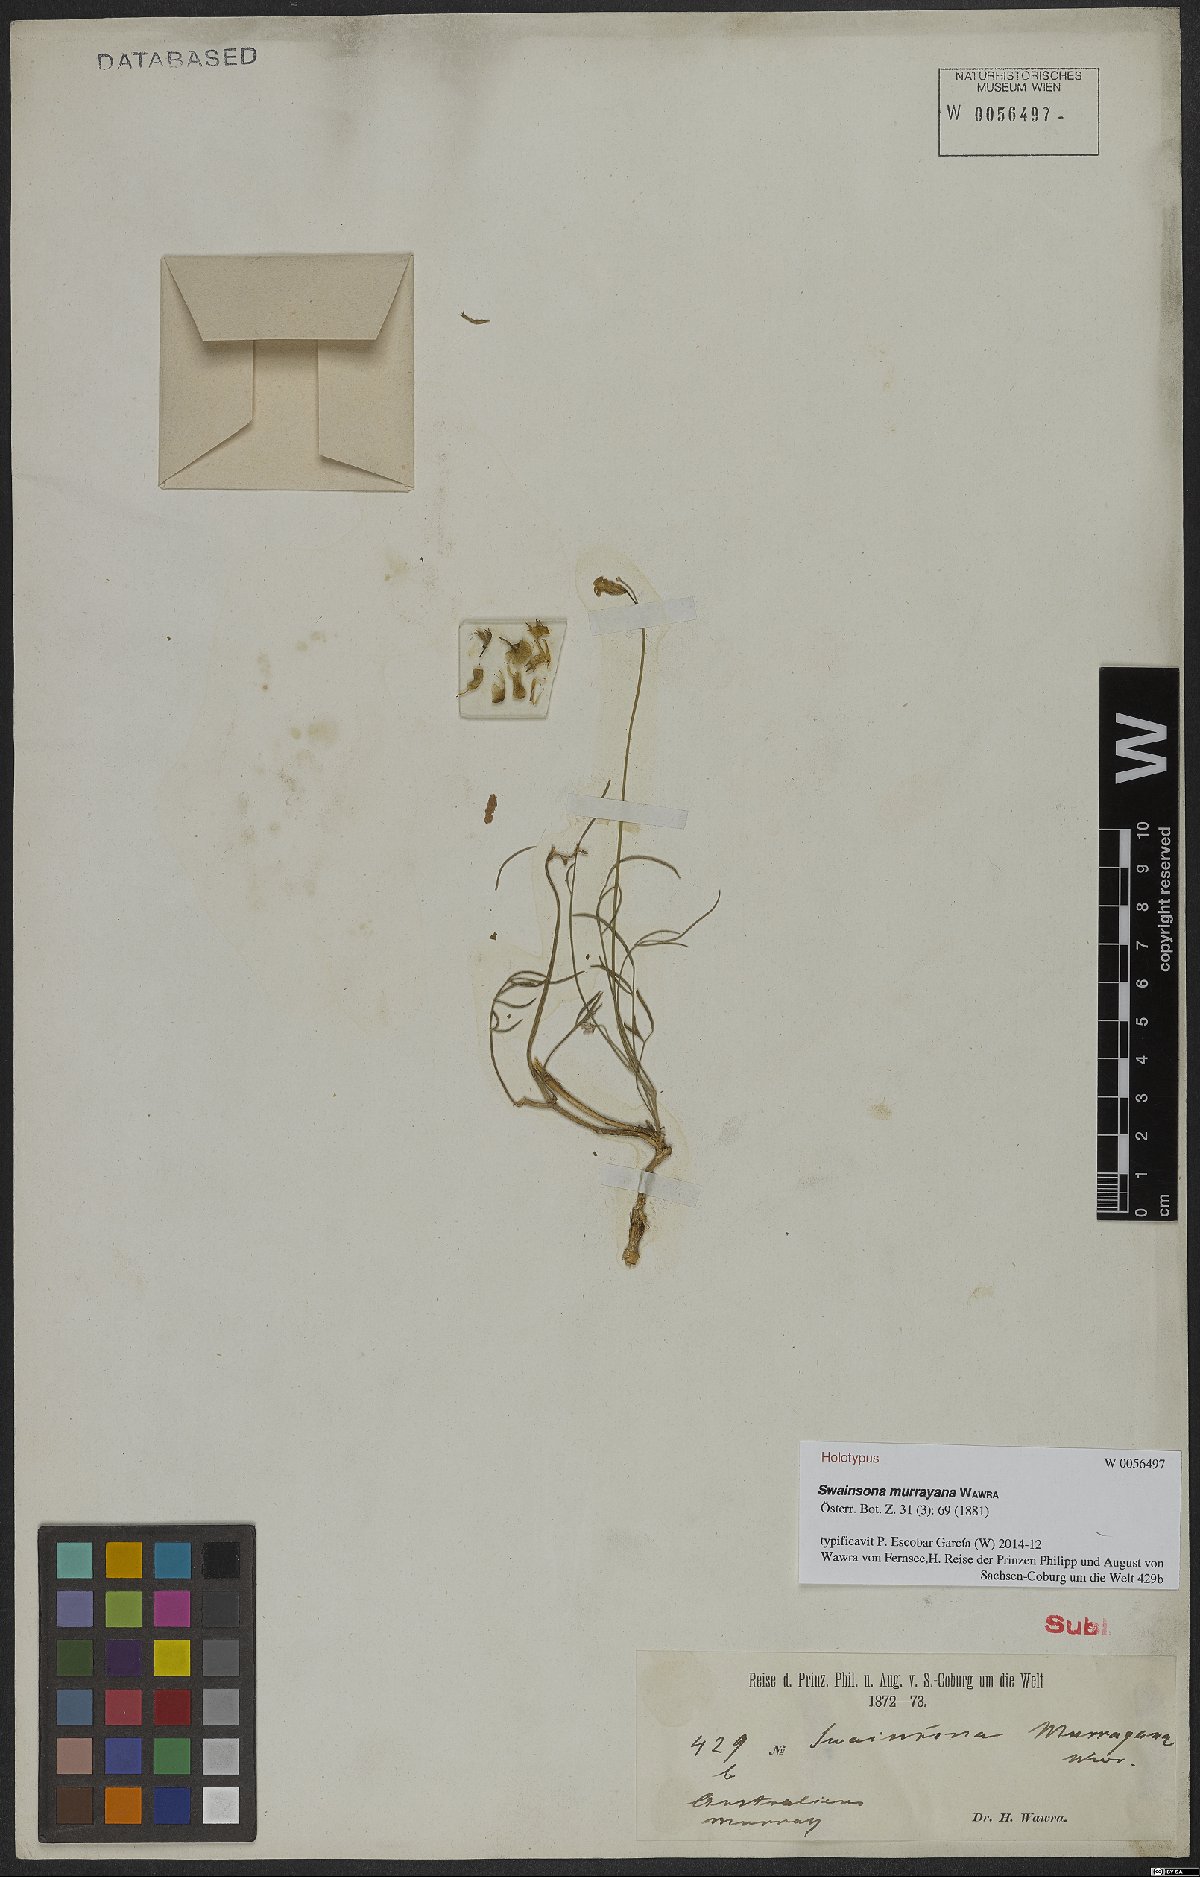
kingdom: Plantae
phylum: Tracheophyta
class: Magnoliopsida
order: Fabales
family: Fabaceae
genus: Swainsona
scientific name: Swainsona murrayana
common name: Slender darling-pea
